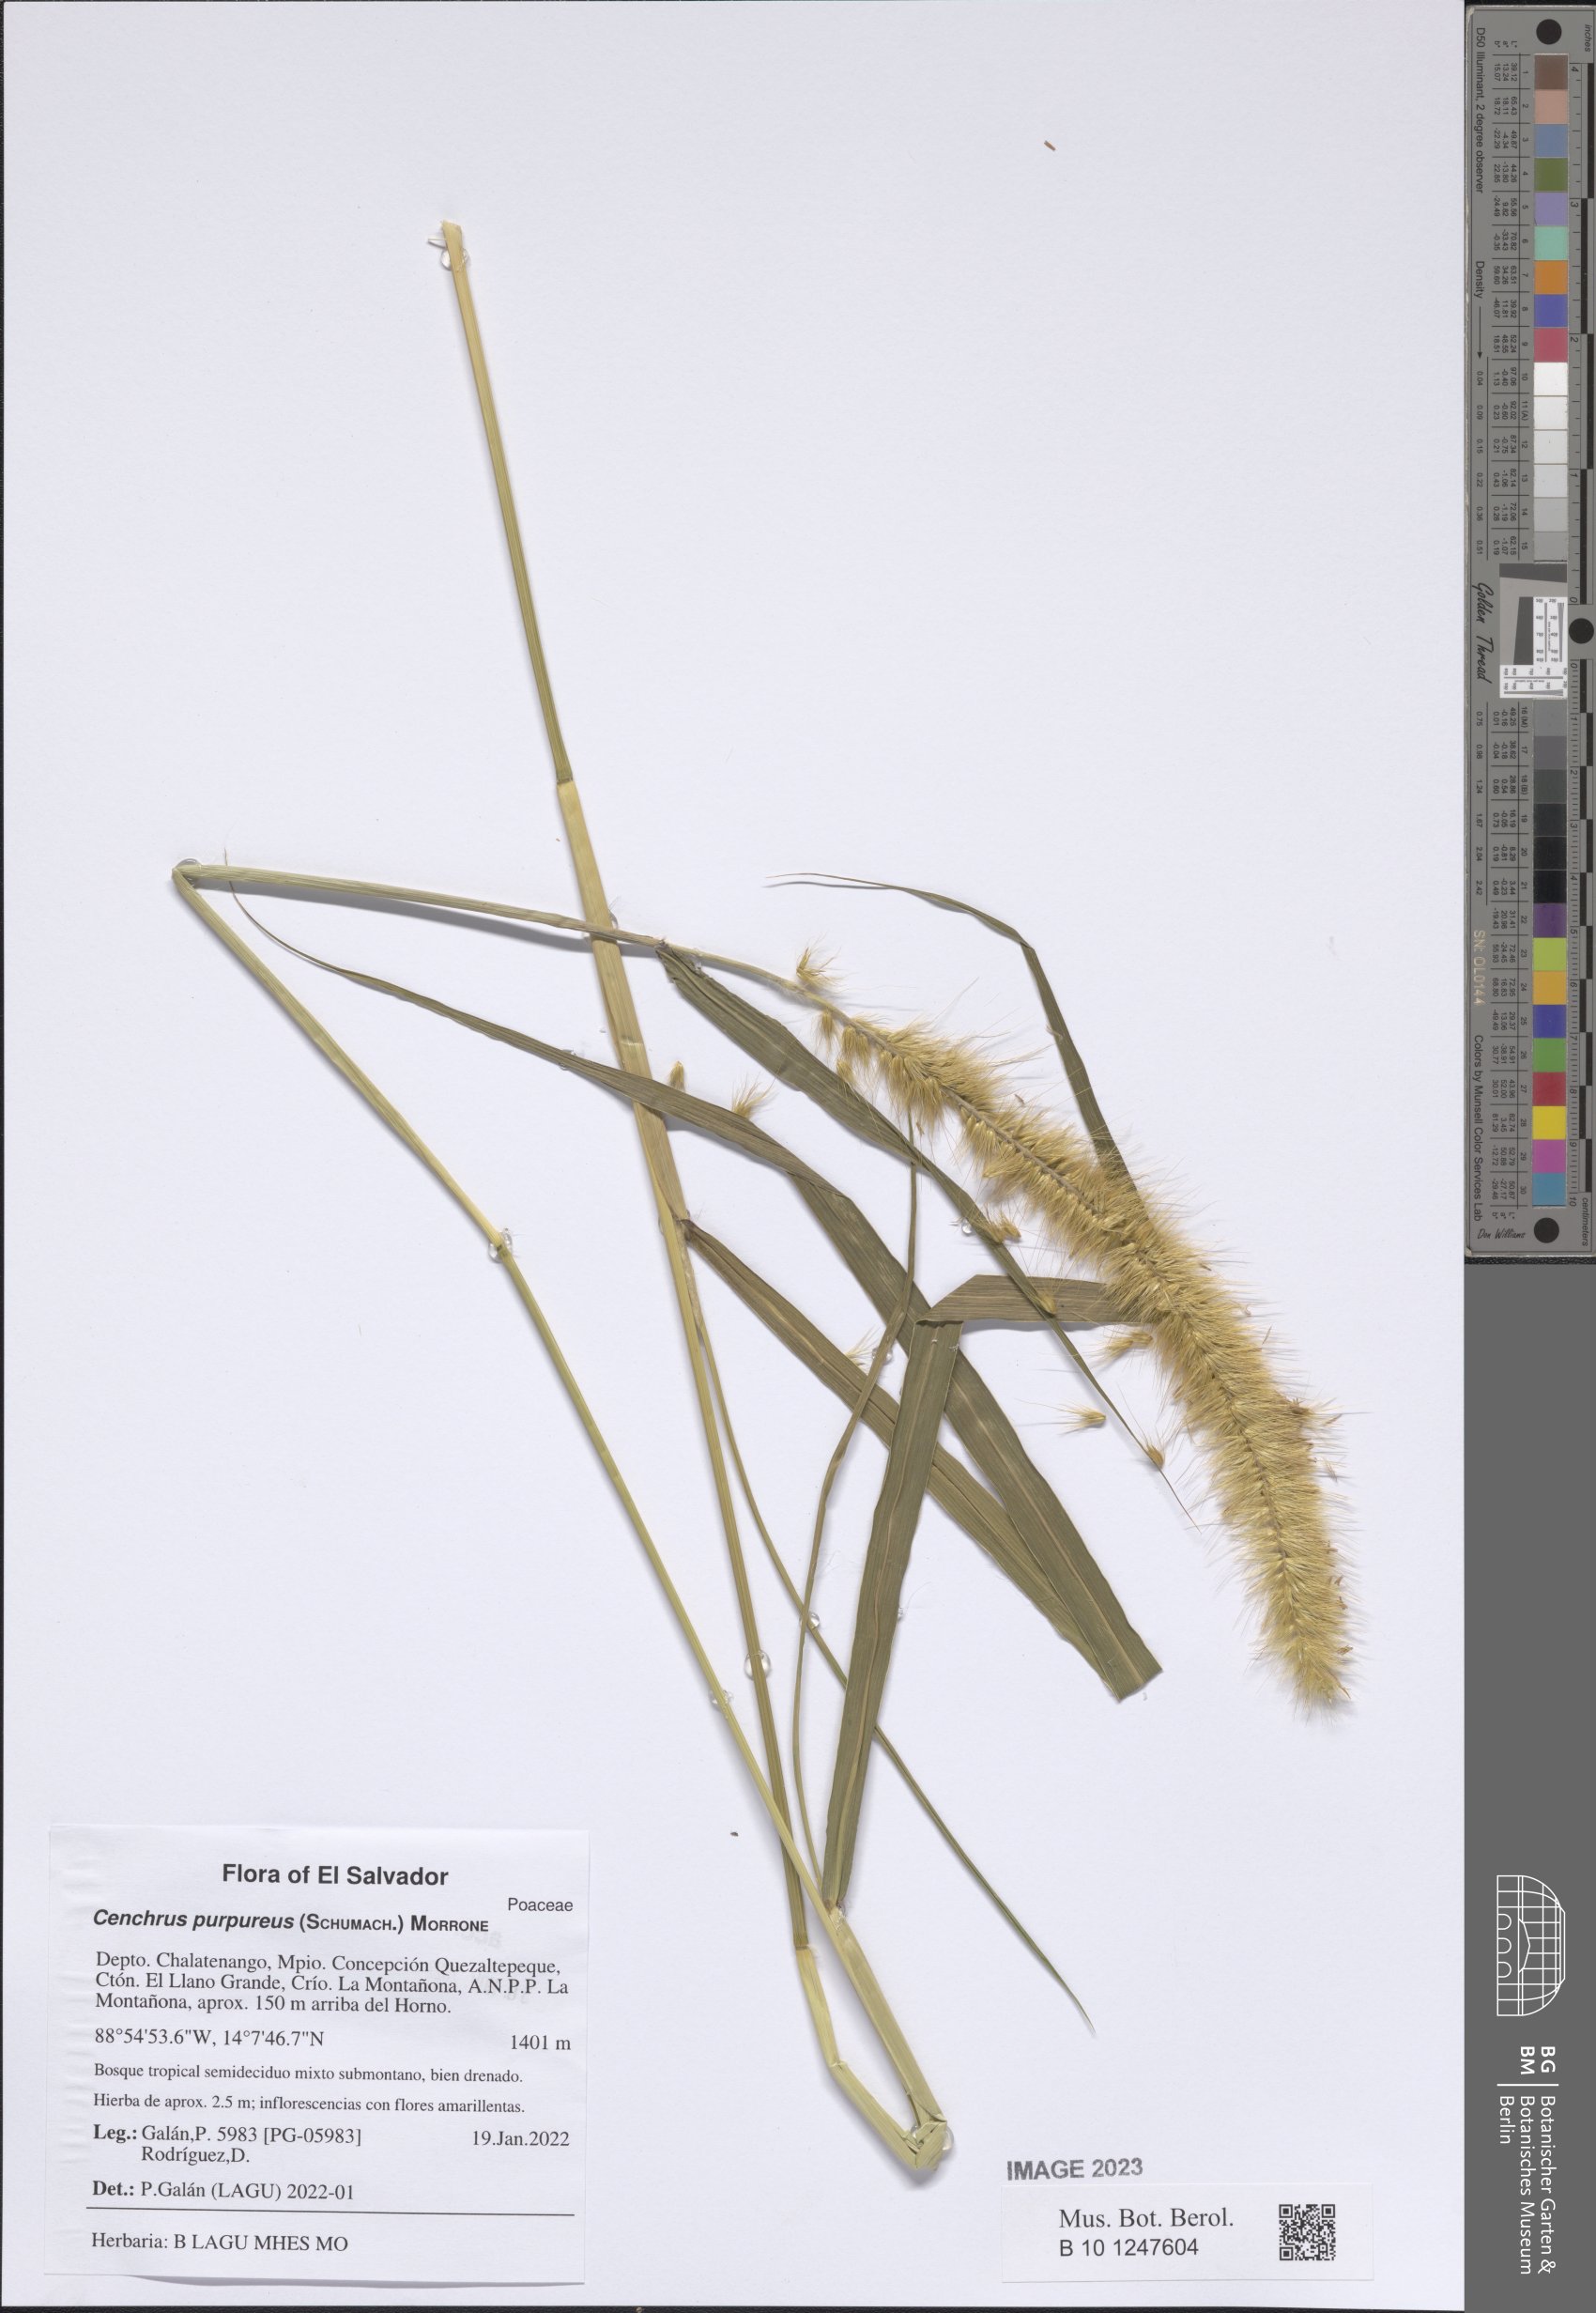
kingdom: Plantae
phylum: Tracheophyta
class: Liliopsida
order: Poales
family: Poaceae
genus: Cenchrus
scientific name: Cenchrus purpureus
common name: Elephant grass
